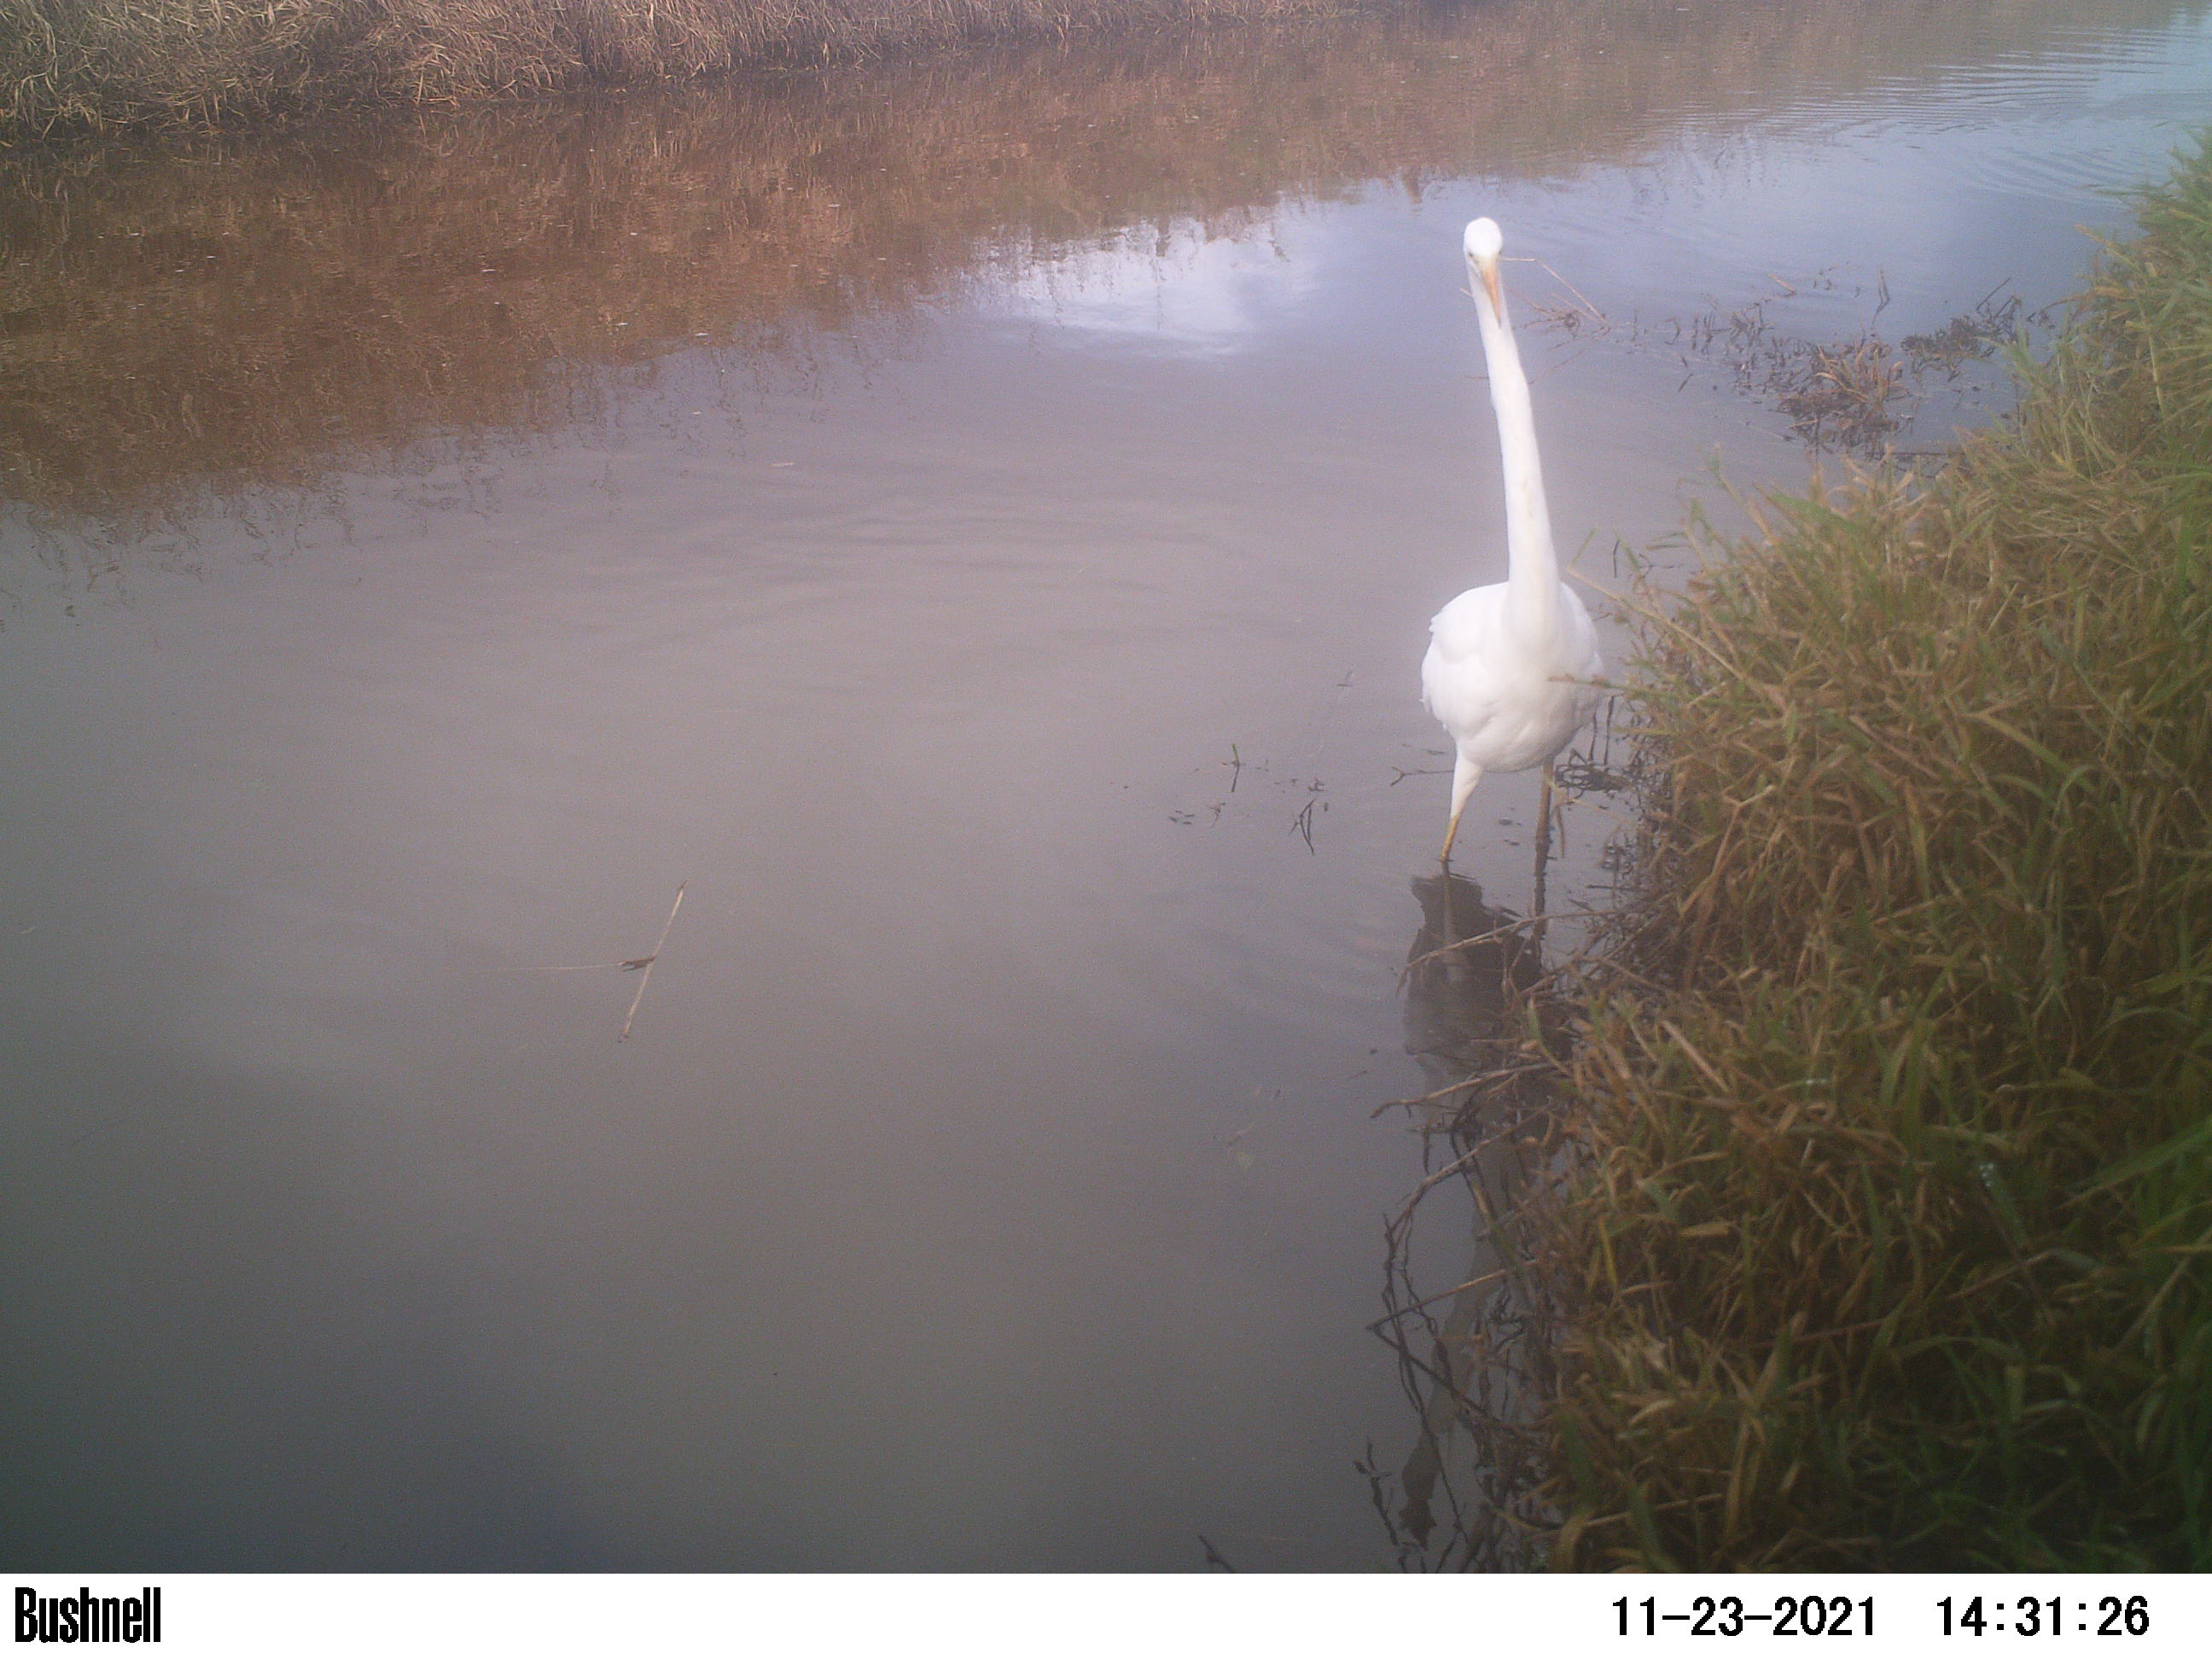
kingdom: Animalia
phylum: Chordata
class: Aves
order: Pelecaniformes
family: Ardeidae
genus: Ardea
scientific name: Ardea alba
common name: Great egret
